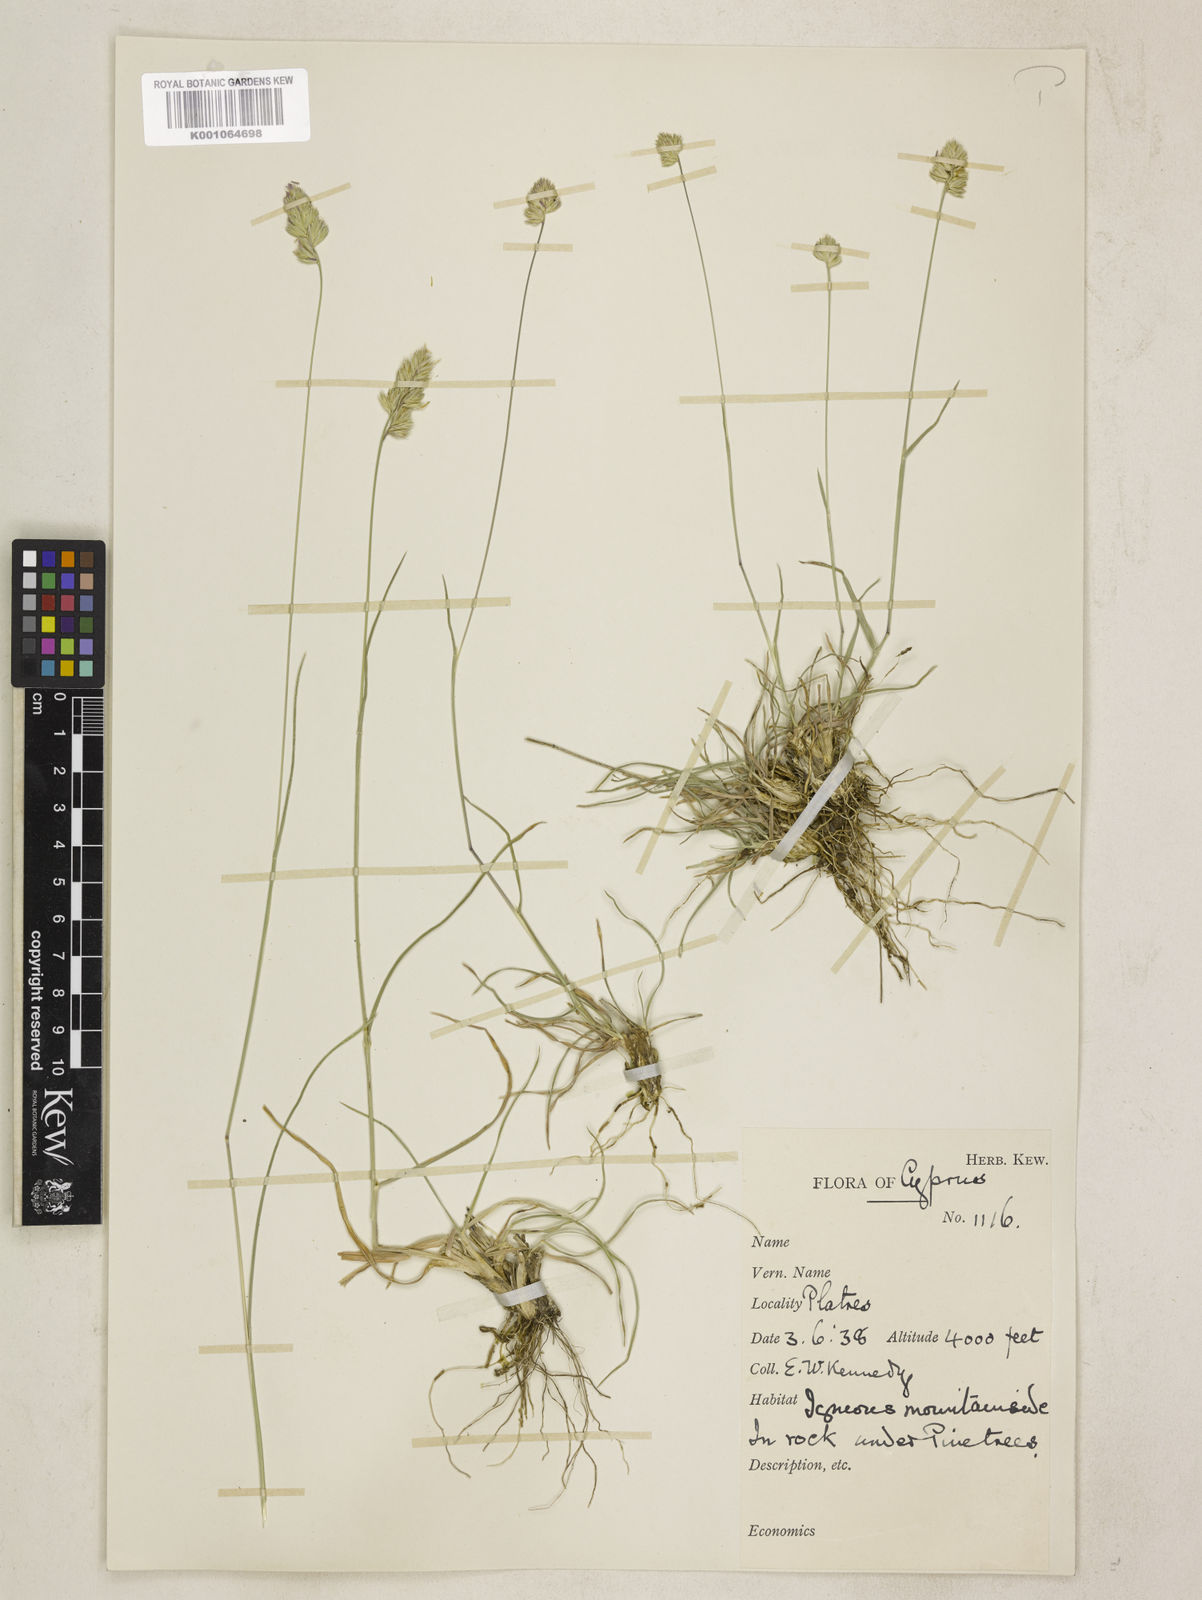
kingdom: Plantae
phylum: Tracheophyta
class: Liliopsida
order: Poales
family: Poaceae
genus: Dactylis
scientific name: Dactylis glomerata
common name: Orchardgrass
